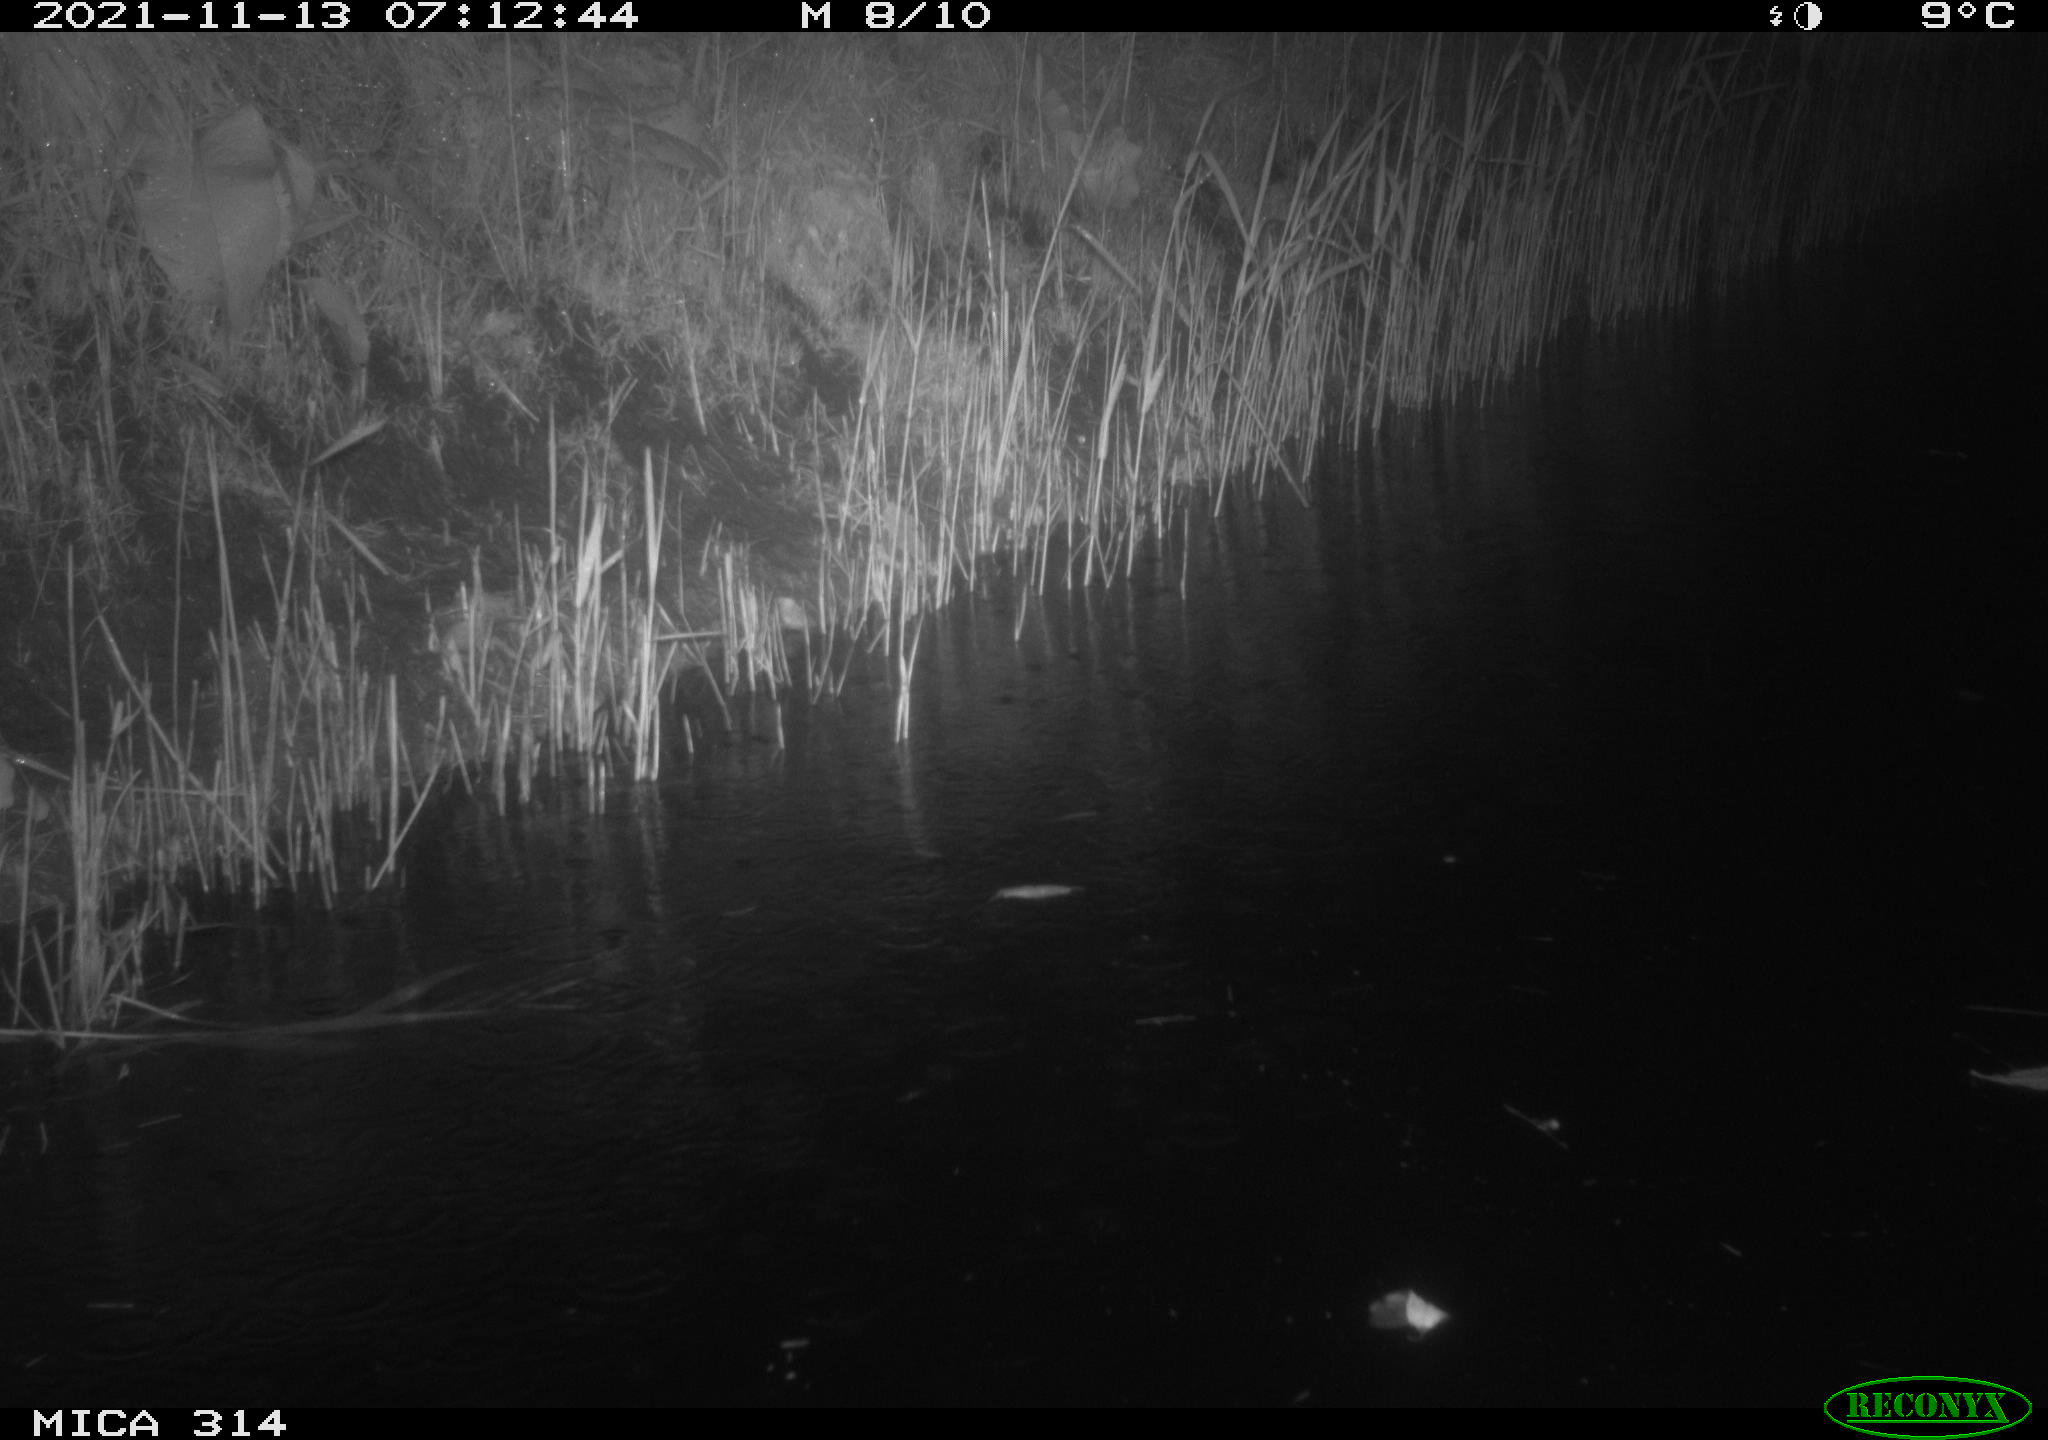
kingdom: Animalia
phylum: Chordata
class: Mammalia
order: Rodentia
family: Muridae
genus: Rattus
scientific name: Rattus norvegicus
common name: Brown rat
